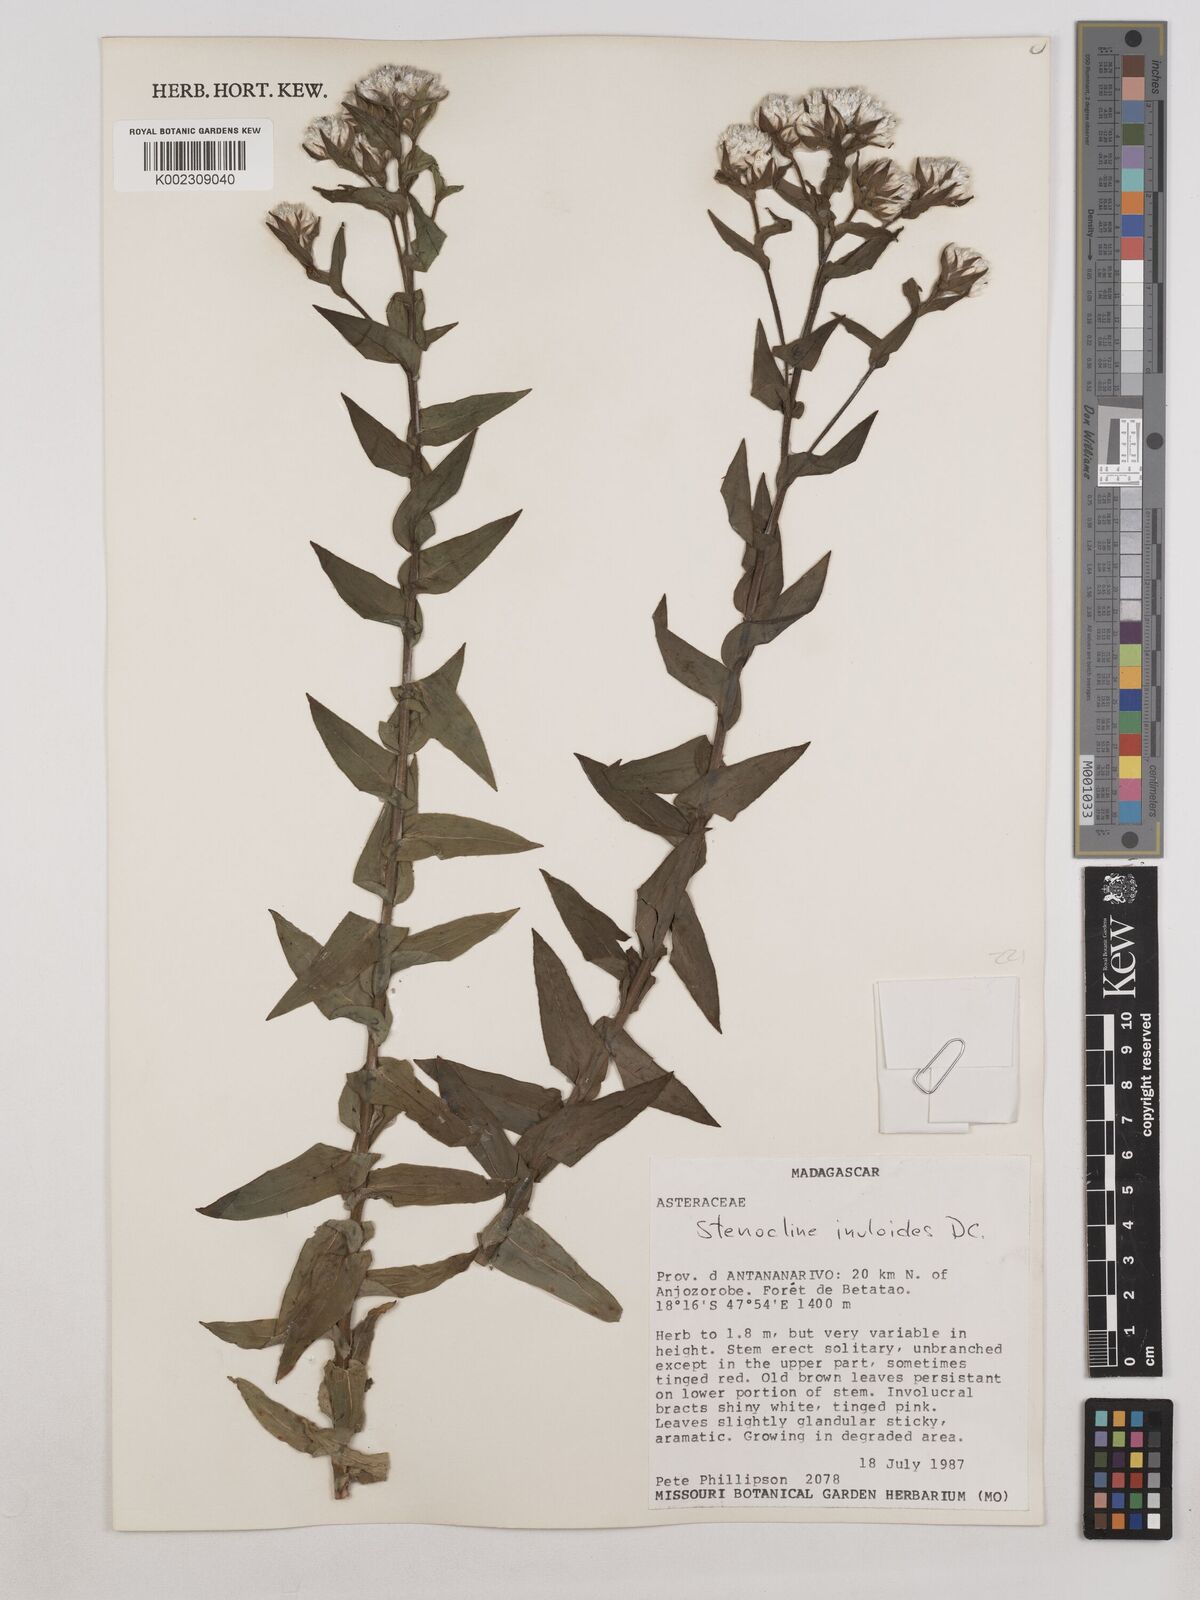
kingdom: Plantae
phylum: Tracheophyta
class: Magnoliopsida
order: Asterales
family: Asteraceae
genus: Stenocline
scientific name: Stenocline inuloides
